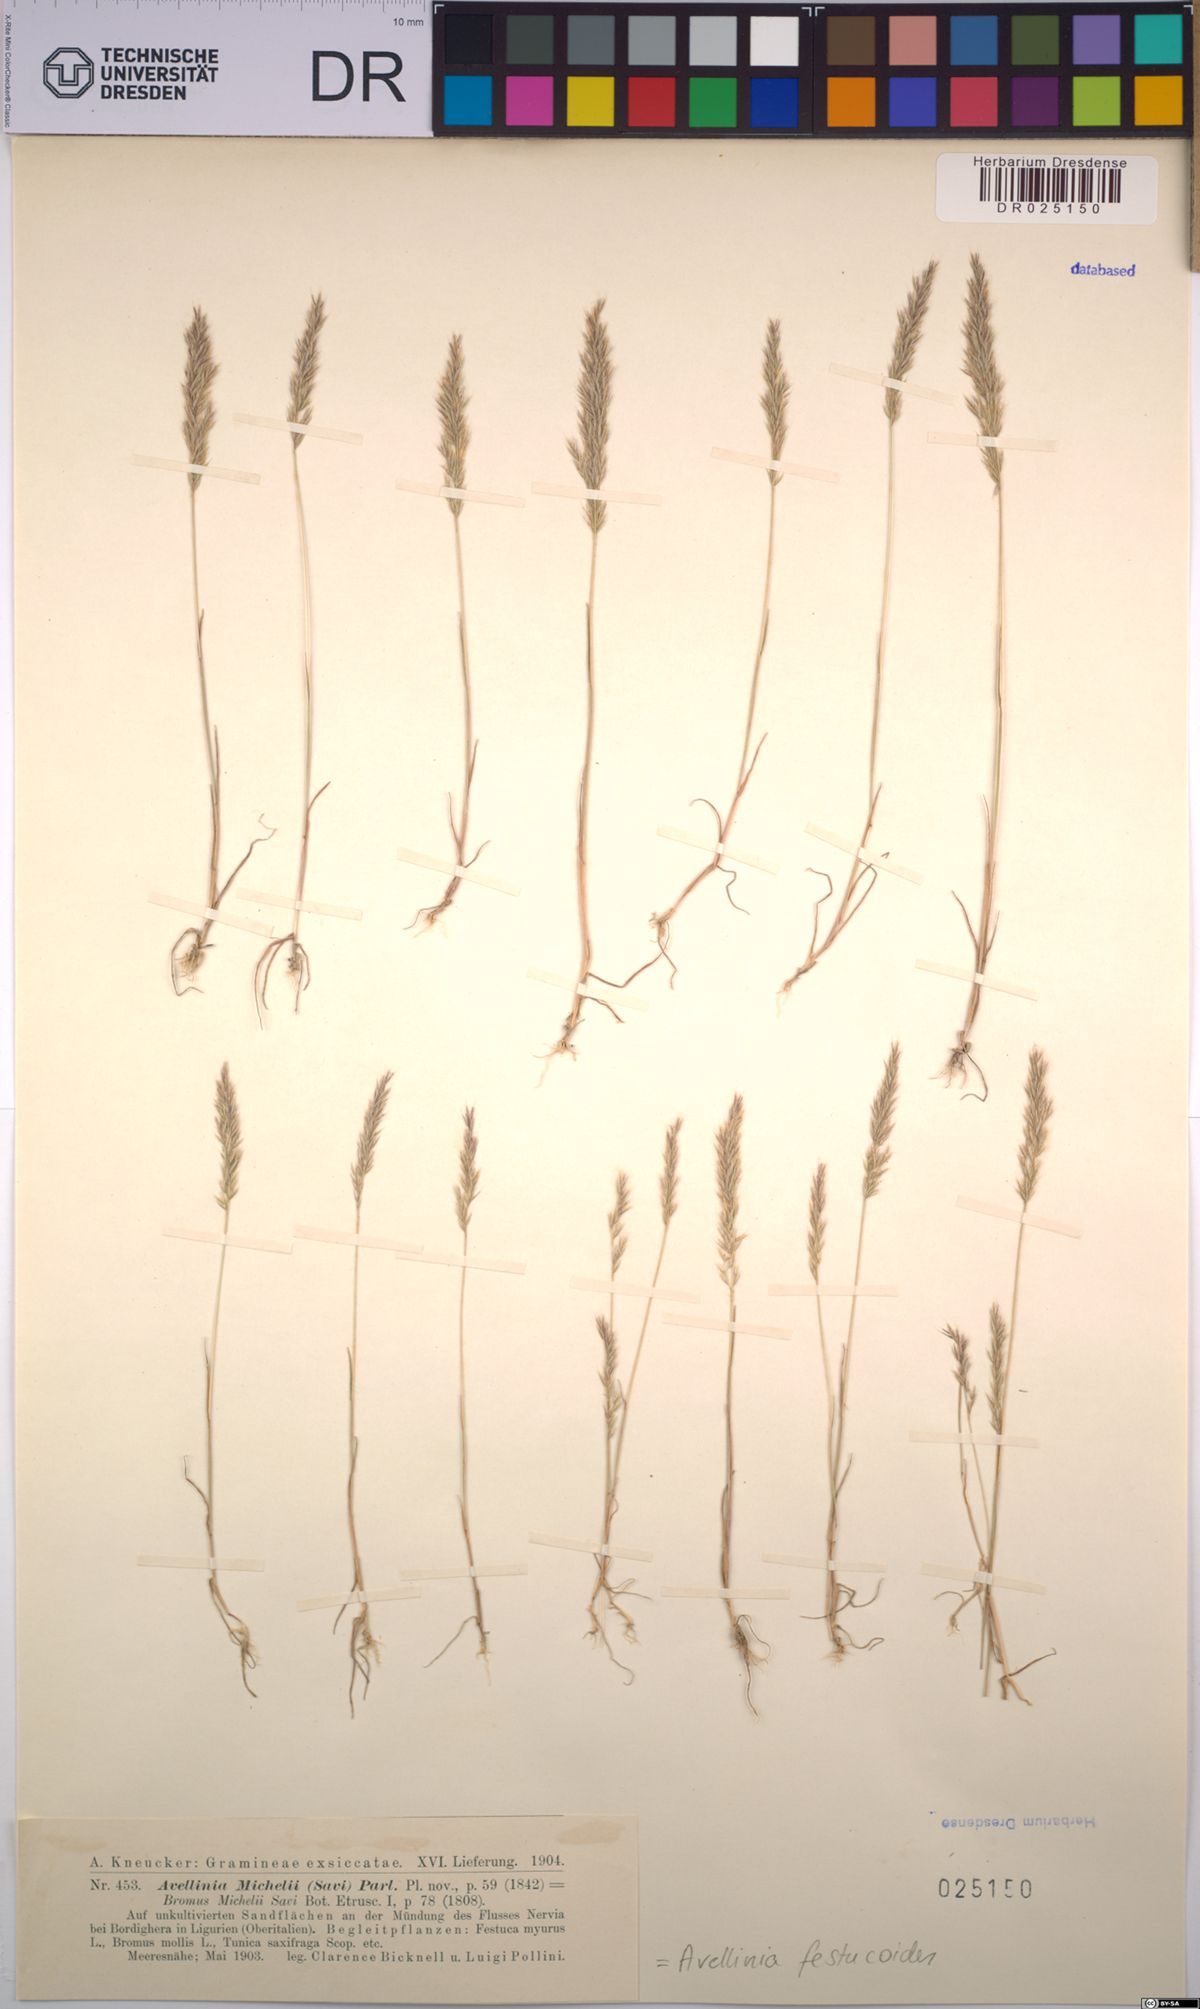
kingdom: Plantae
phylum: Tracheophyta
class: Liliopsida
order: Poales
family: Poaceae
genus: Avellinia
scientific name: Avellinia festucoides
